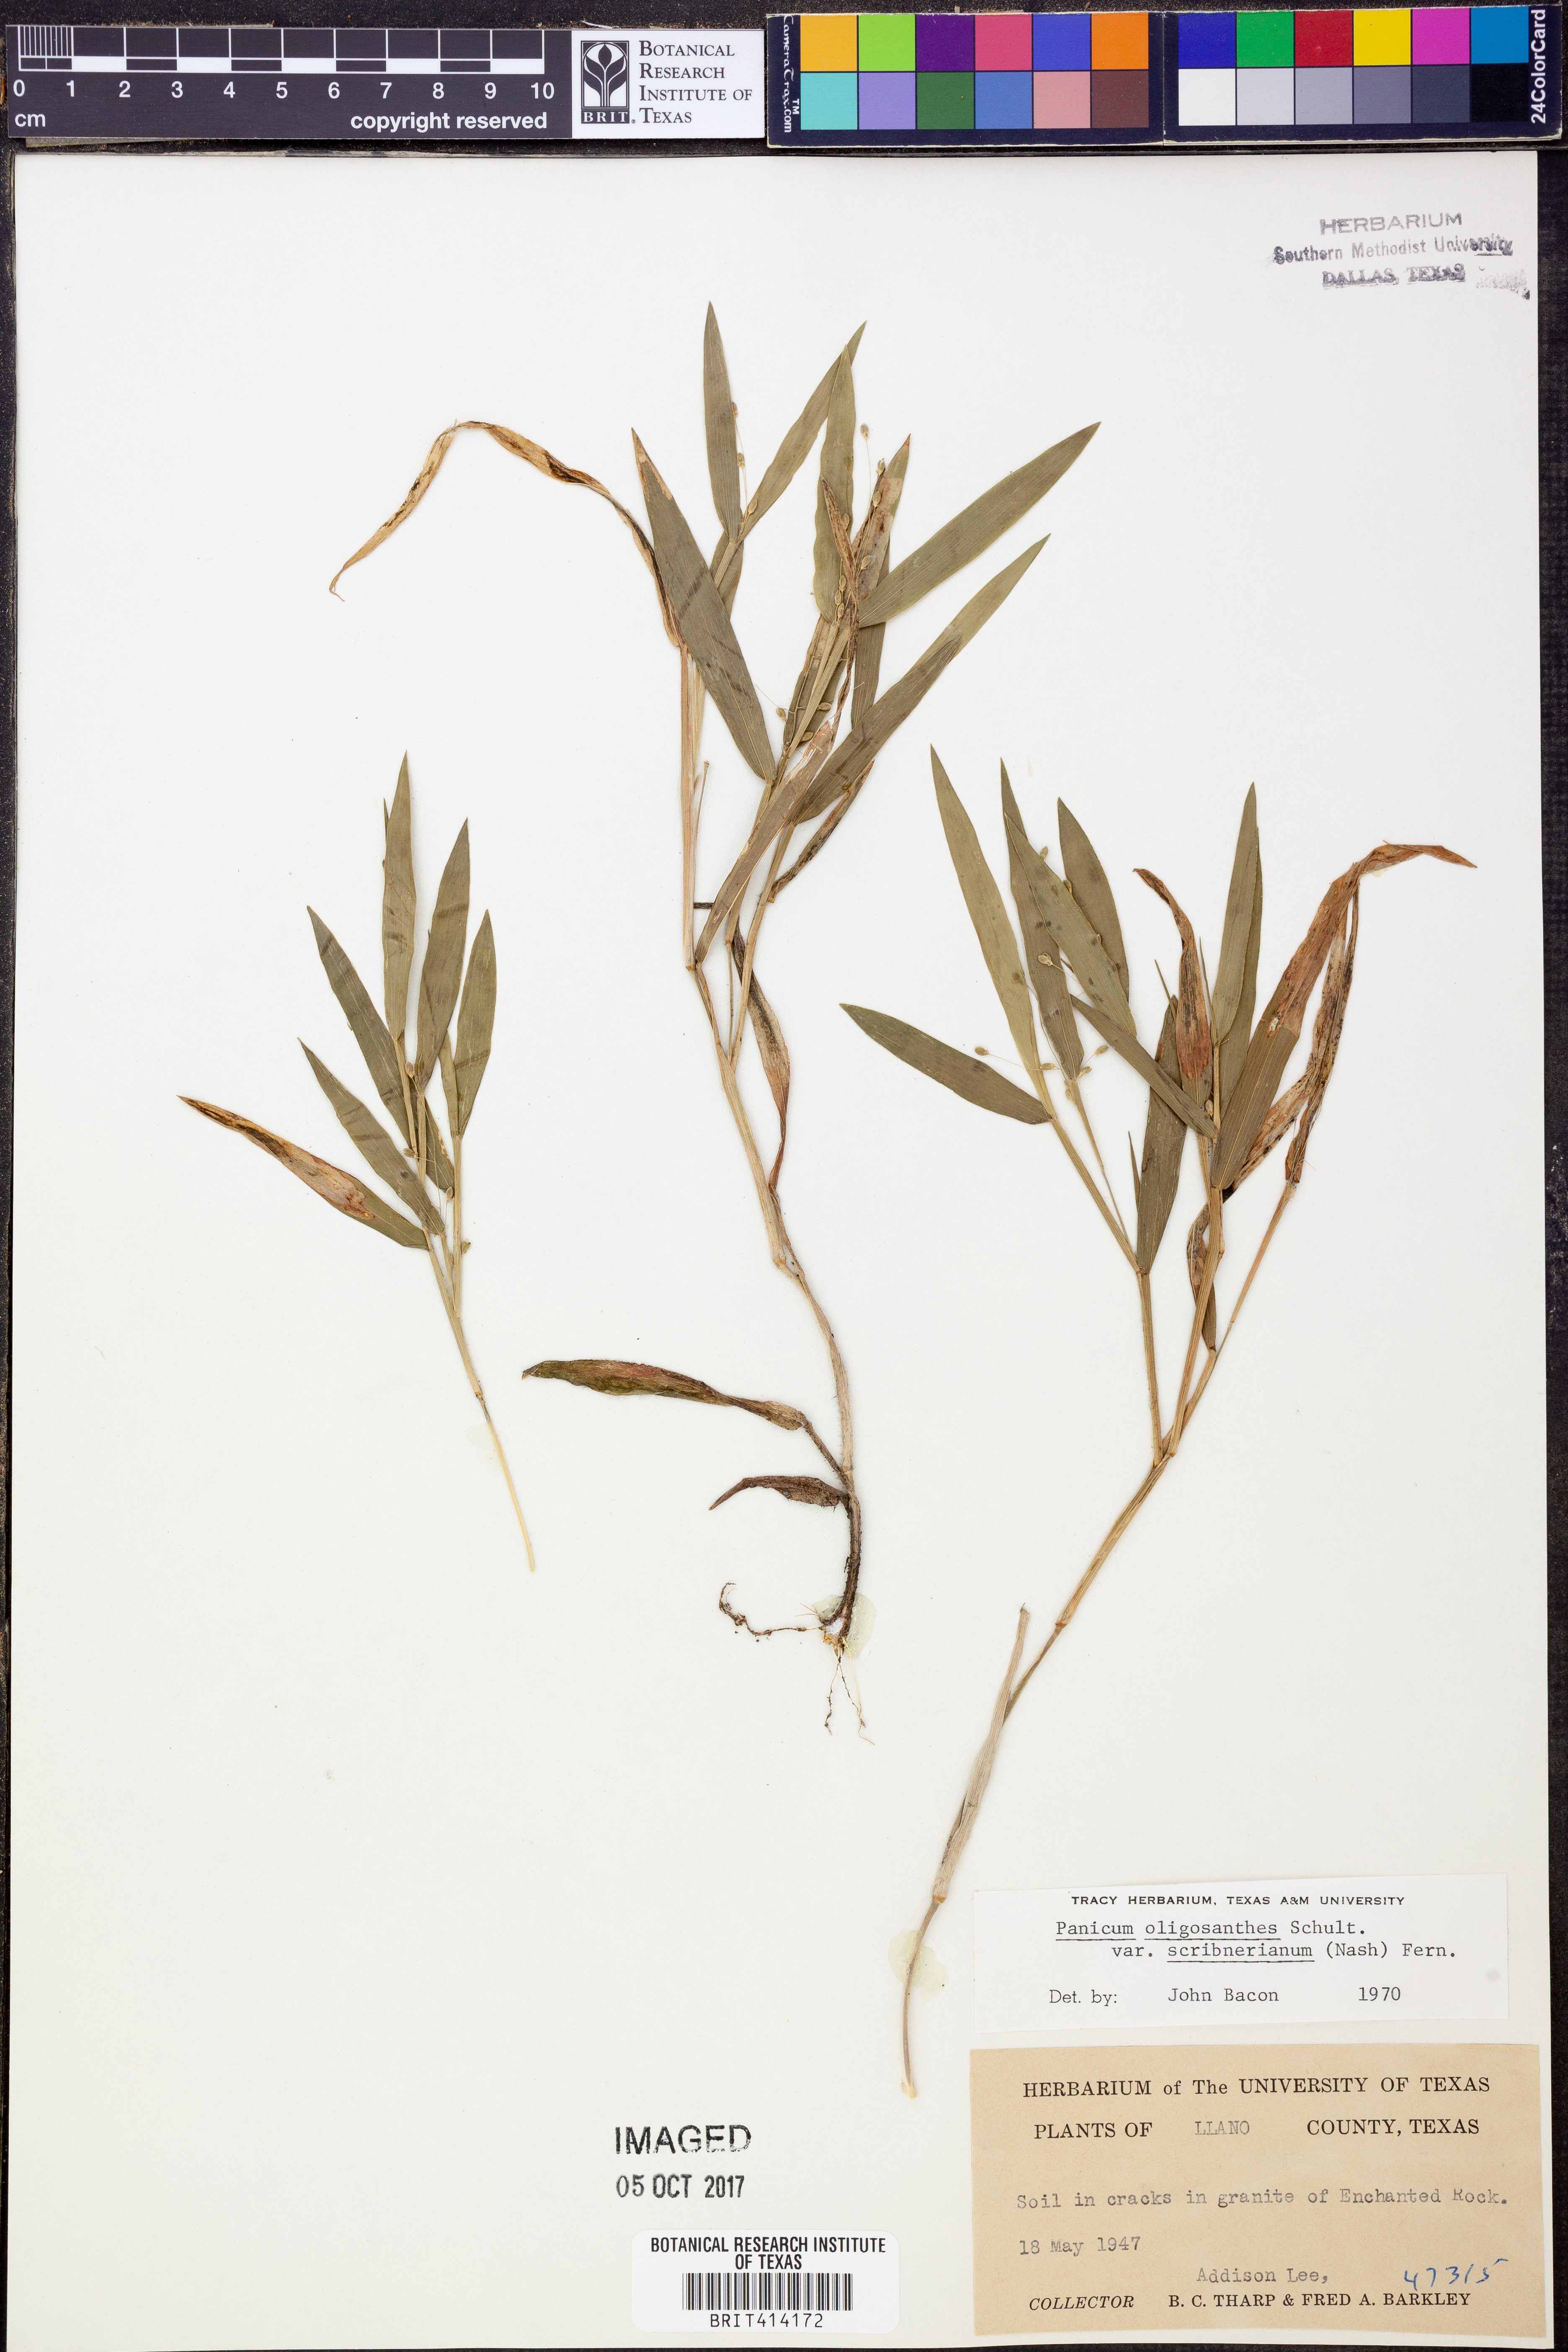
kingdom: Plantae
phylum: Tracheophyta
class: Liliopsida
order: Poales
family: Poaceae
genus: Dichanthelium
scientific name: Dichanthelium scribnerianum
